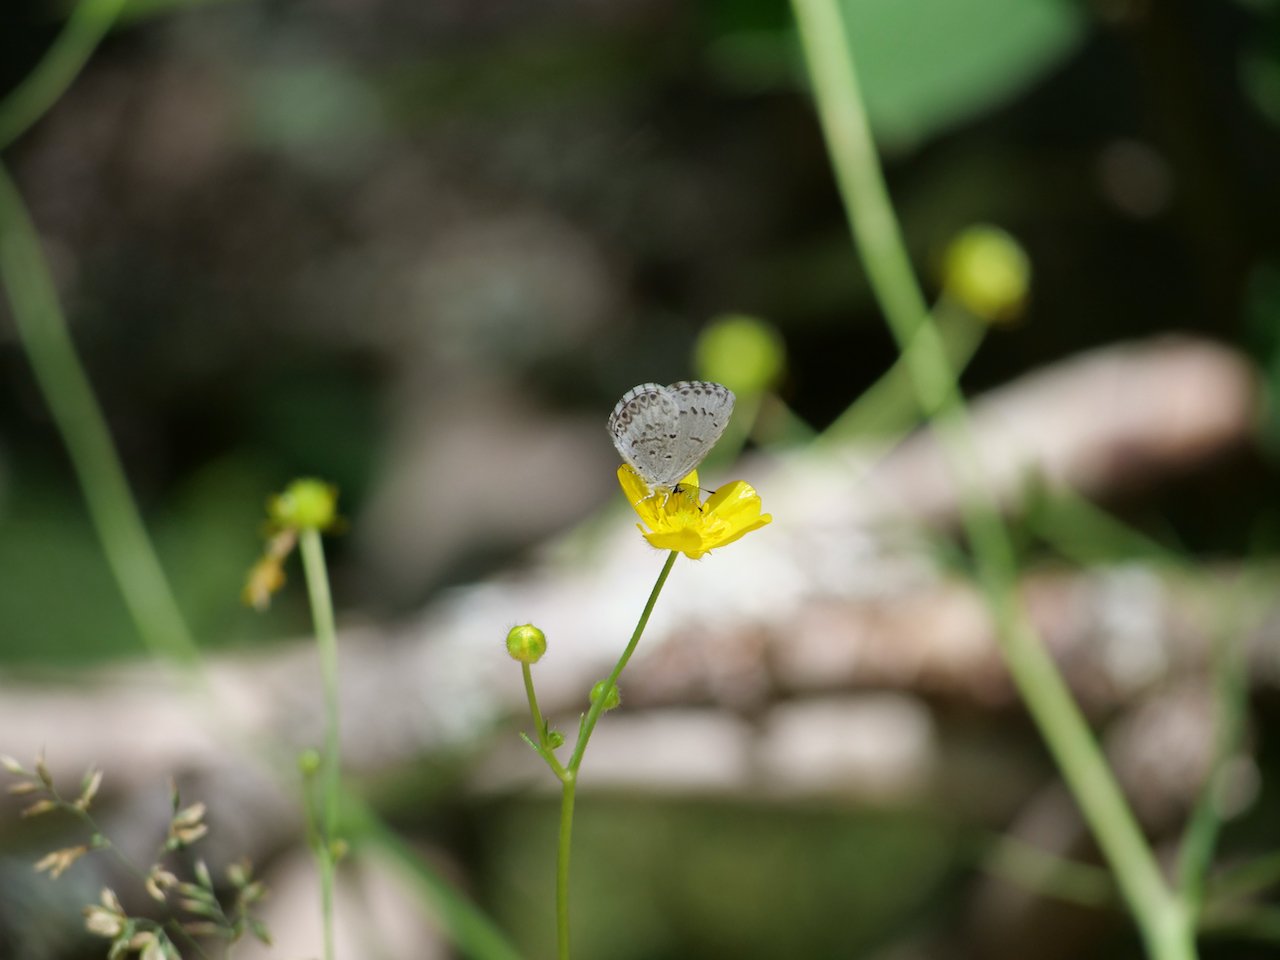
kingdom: Animalia
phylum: Arthropoda
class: Insecta
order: Lepidoptera
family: Lycaenidae
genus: Celastrina
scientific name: Celastrina lucia
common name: Northern Spring Azure
